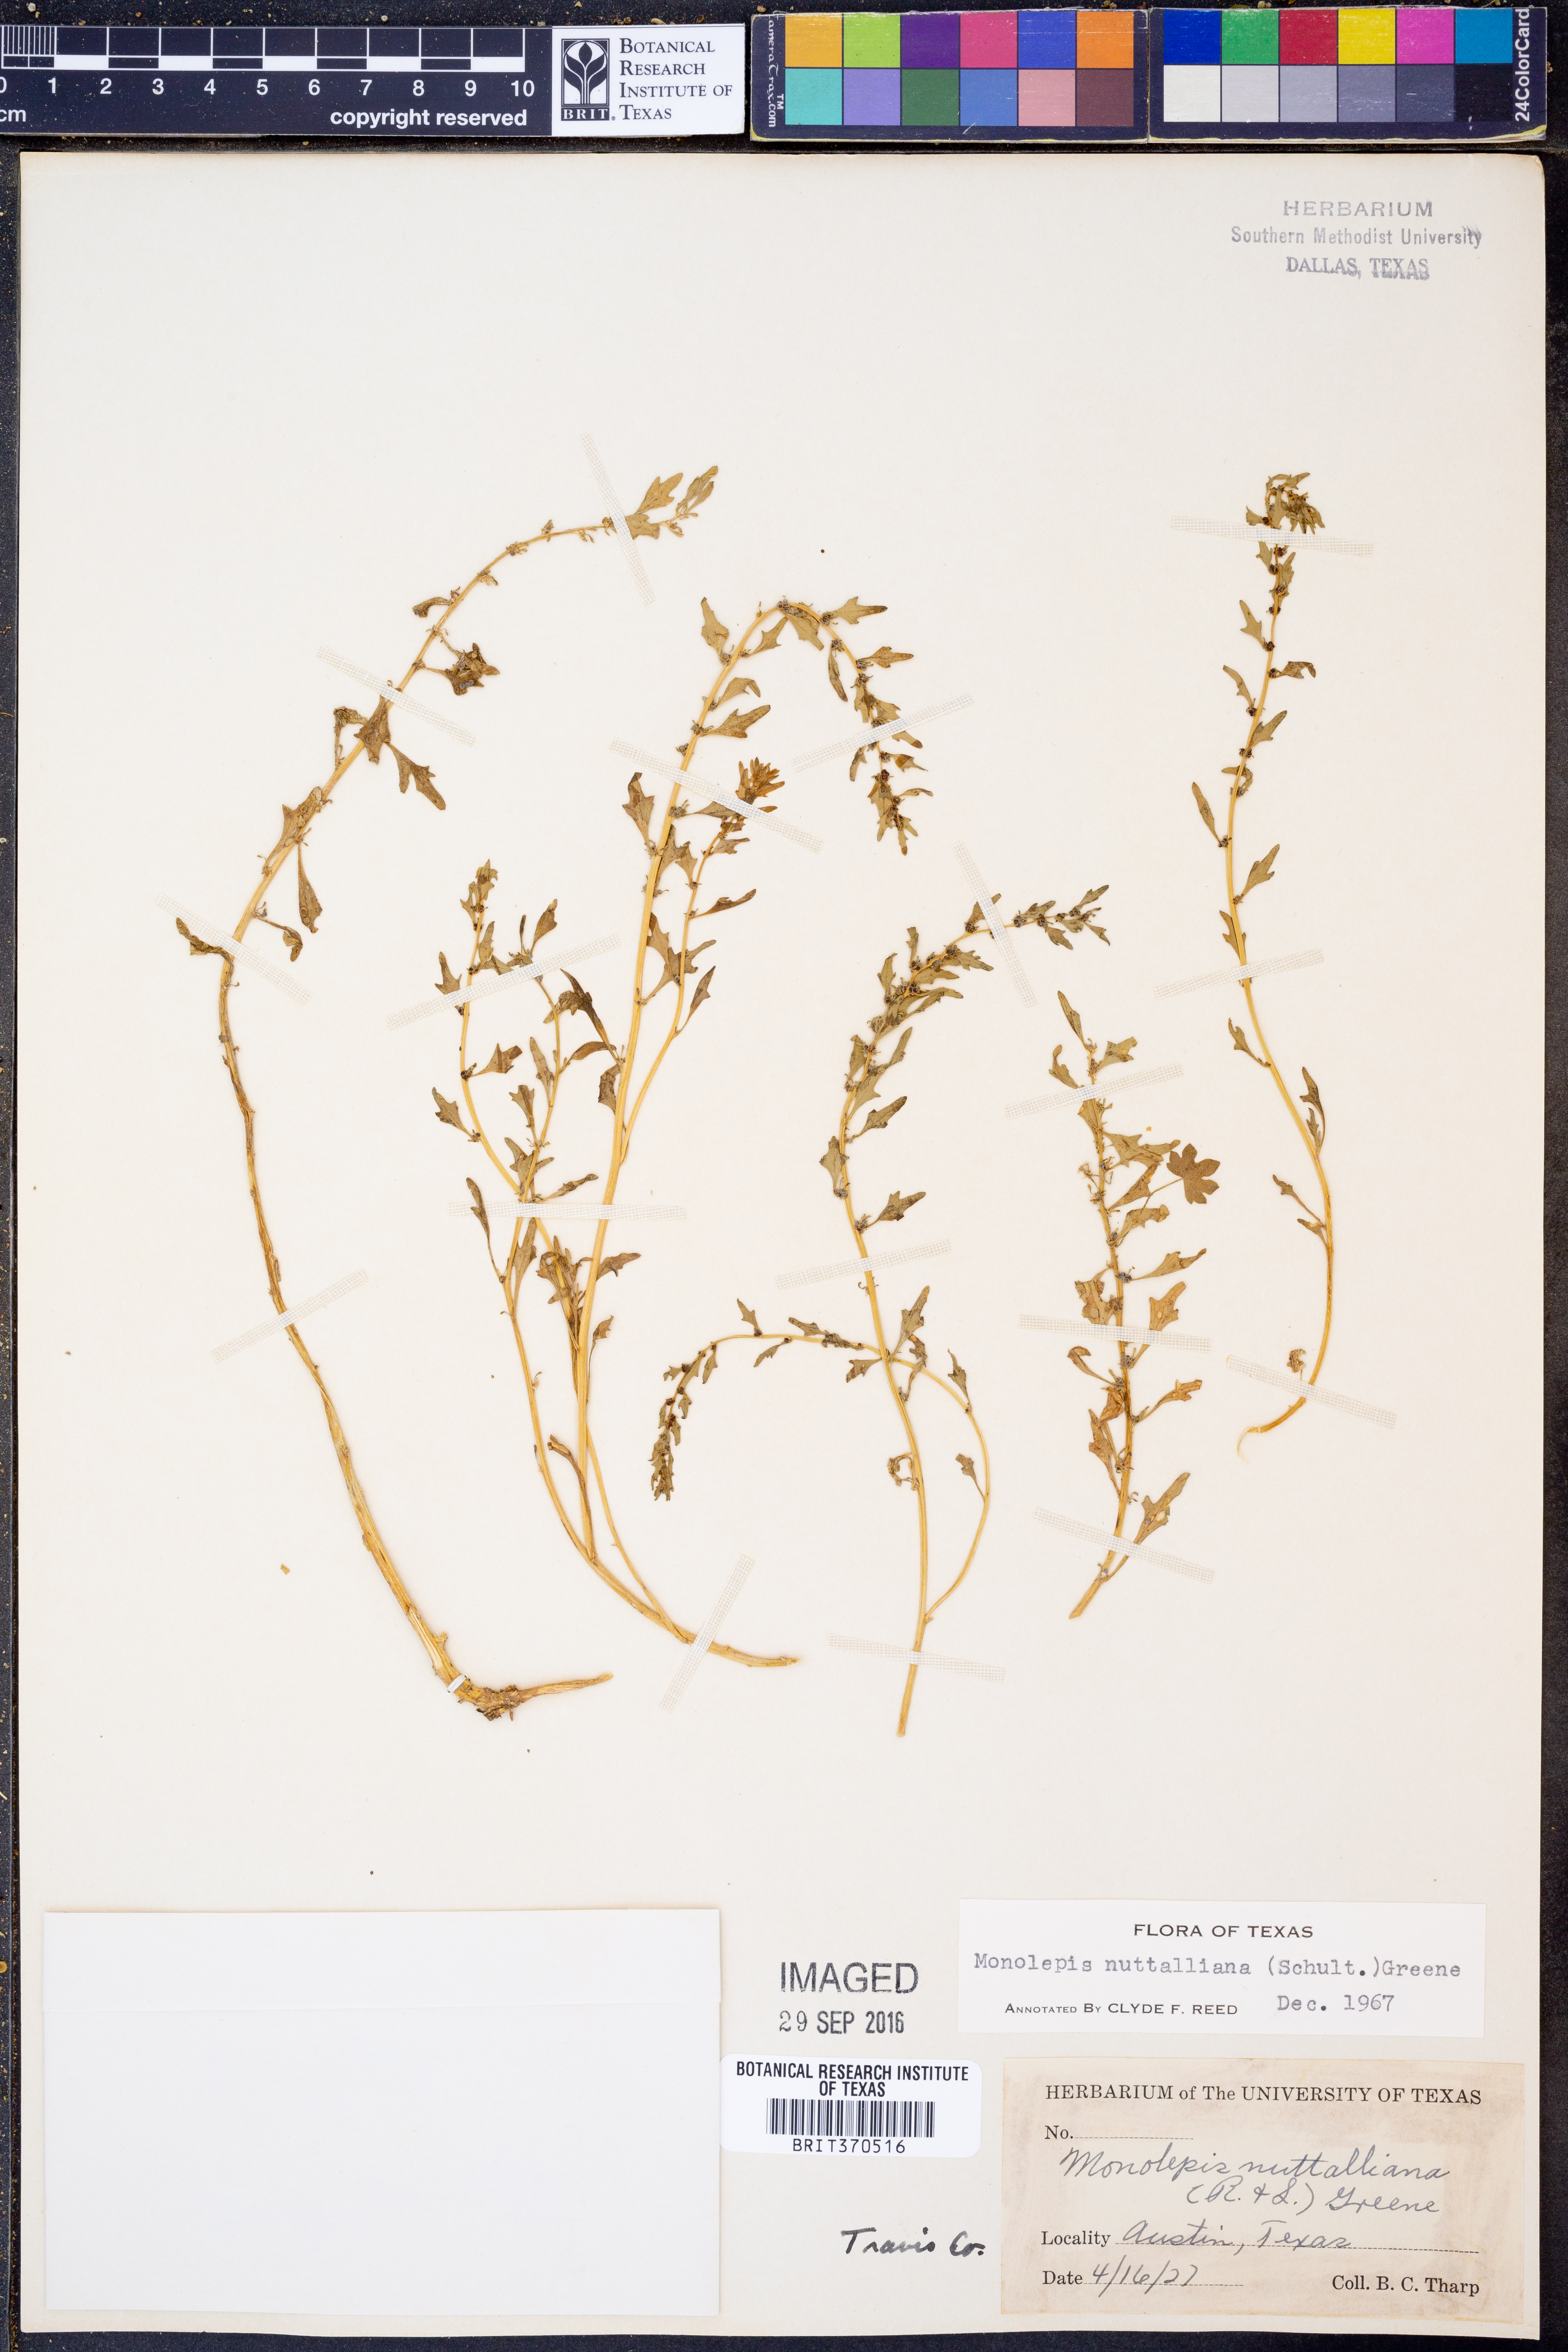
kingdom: Plantae
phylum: Tracheophyta
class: Magnoliopsida
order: Caryophyllales
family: Amaranthaceae
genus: Blitum
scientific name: Blitum nuttallianum
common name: Poverty-weed
